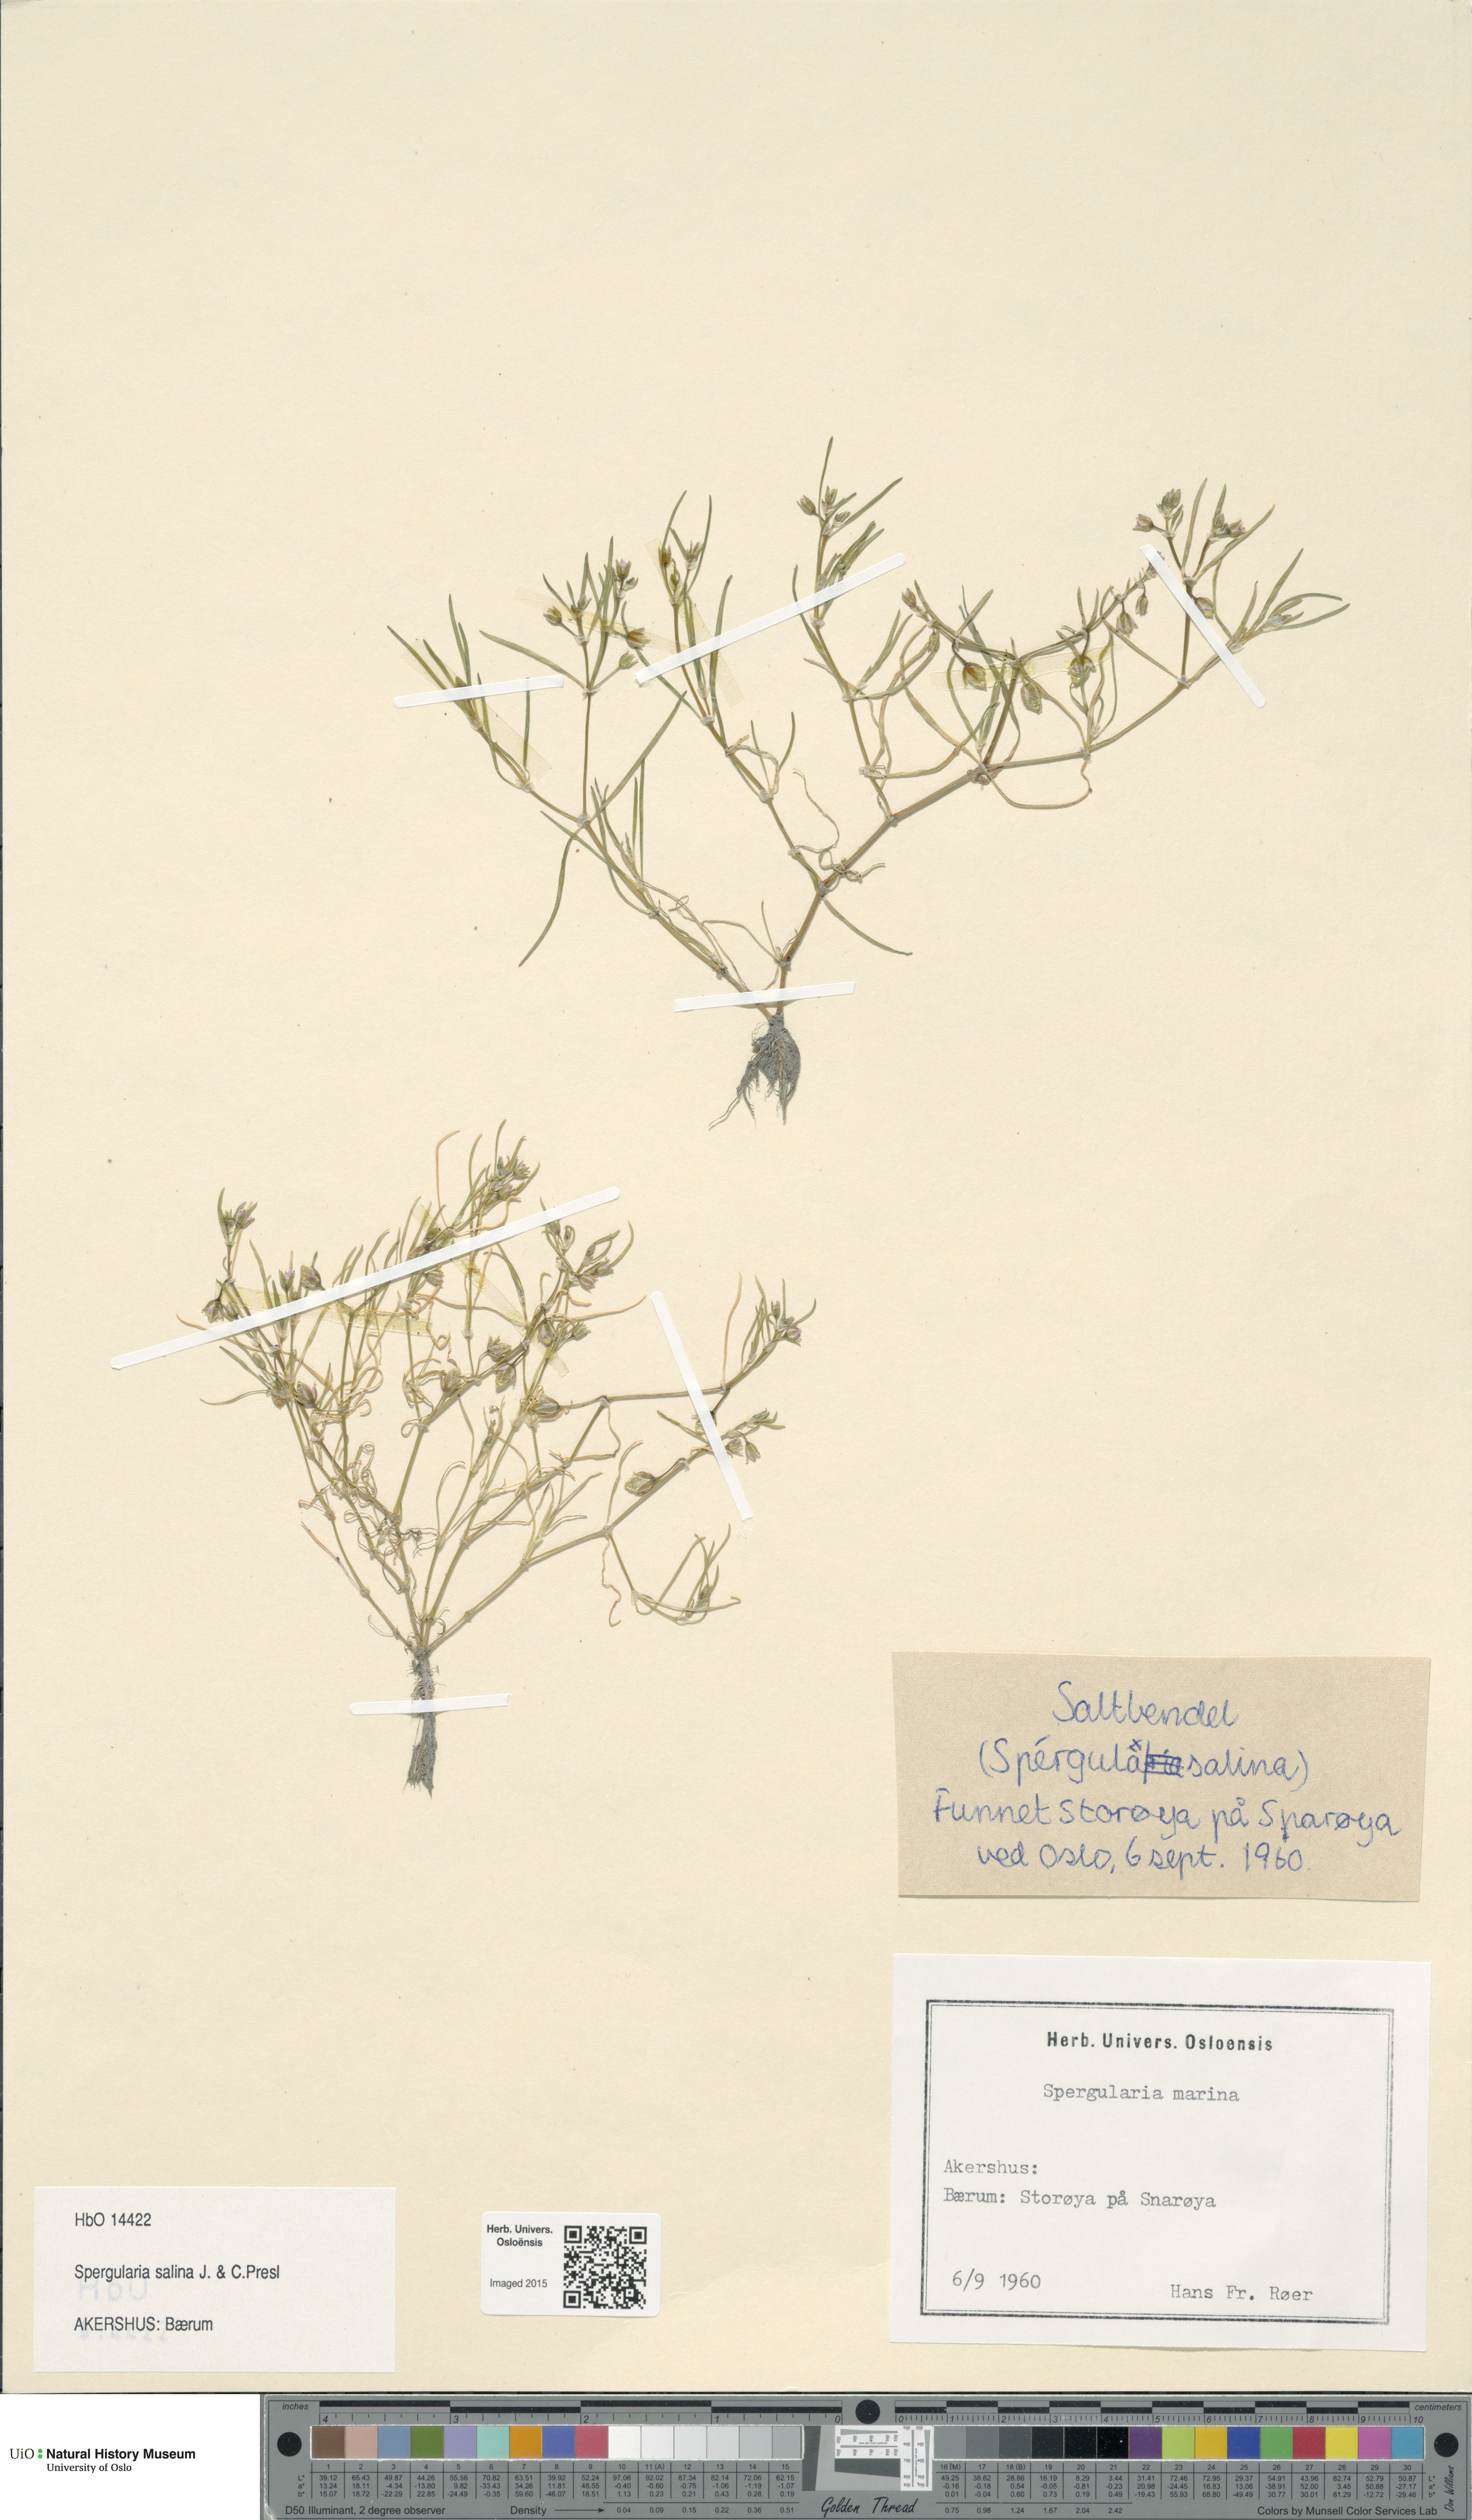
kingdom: Plantae
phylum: Tracheophyta
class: Magnoliopsida
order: Caryophyllales
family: Caryophyllaceae
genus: Spergularia
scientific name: Spergularia marina
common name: Lesser sea-spurrey
